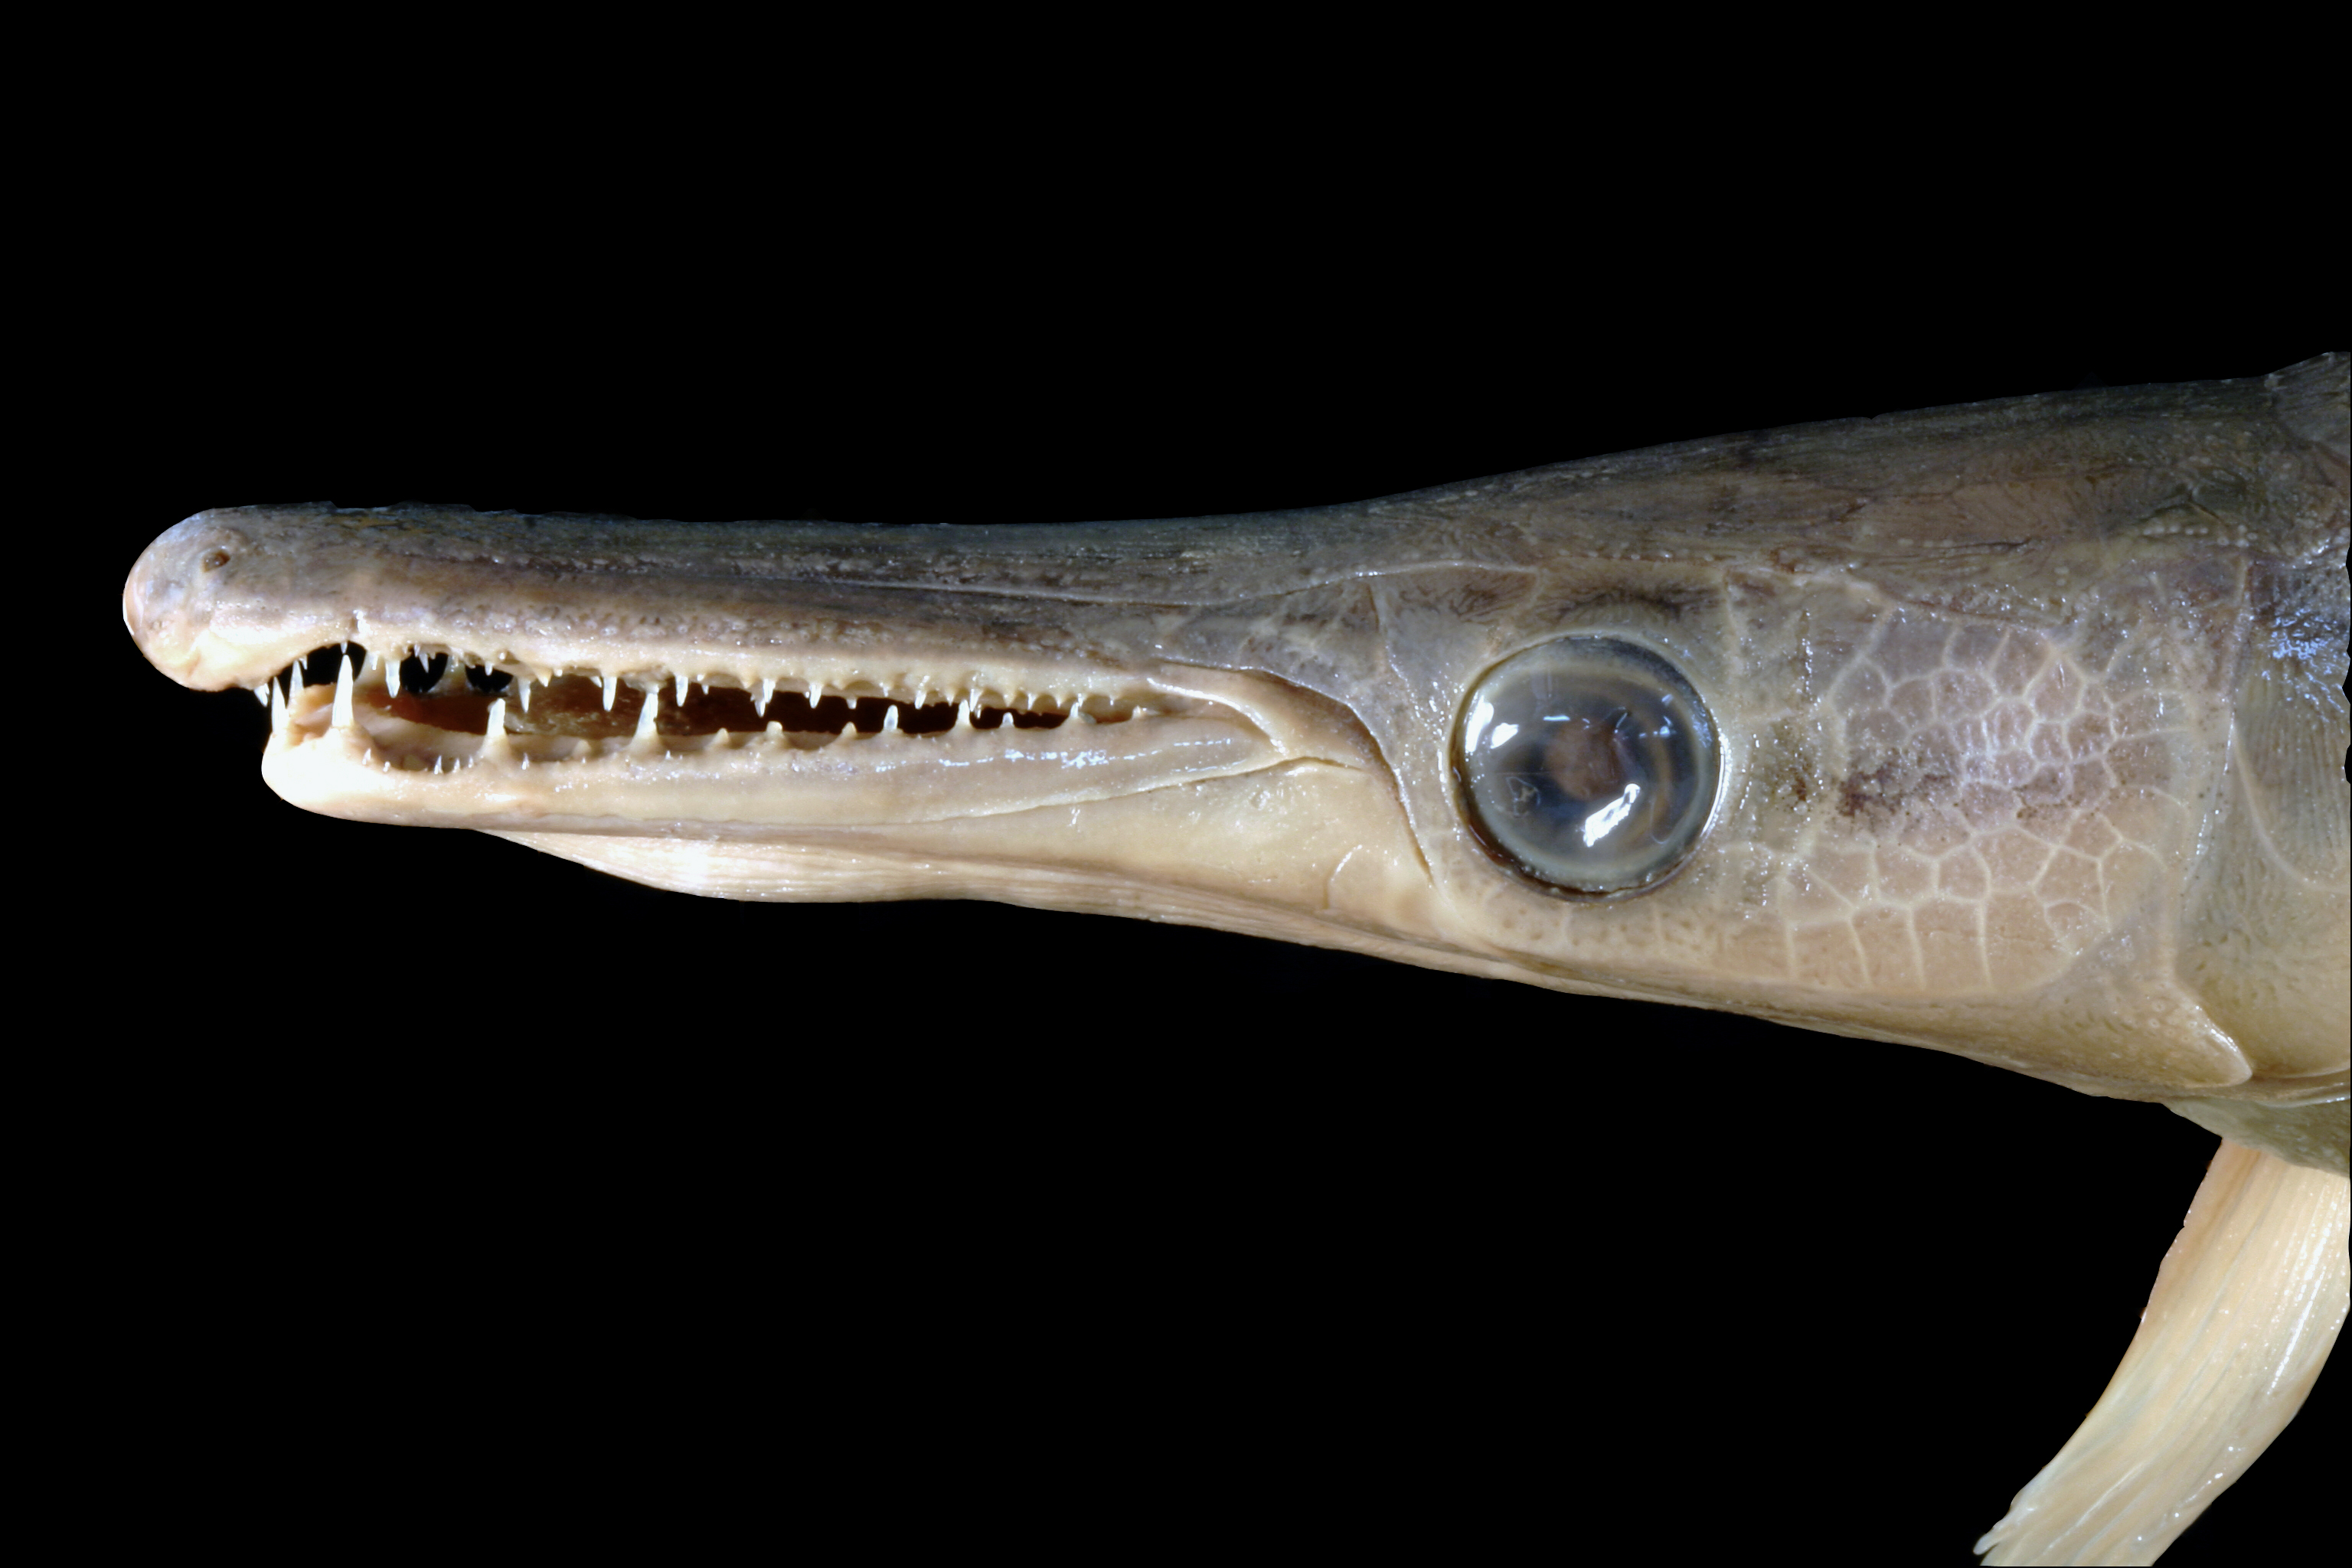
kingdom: Animalia
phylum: Chordata
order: Lepisosteiformes
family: Lepisosteidae
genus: Atractosteus
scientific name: Atractosteus spatula
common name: Alligator gar
